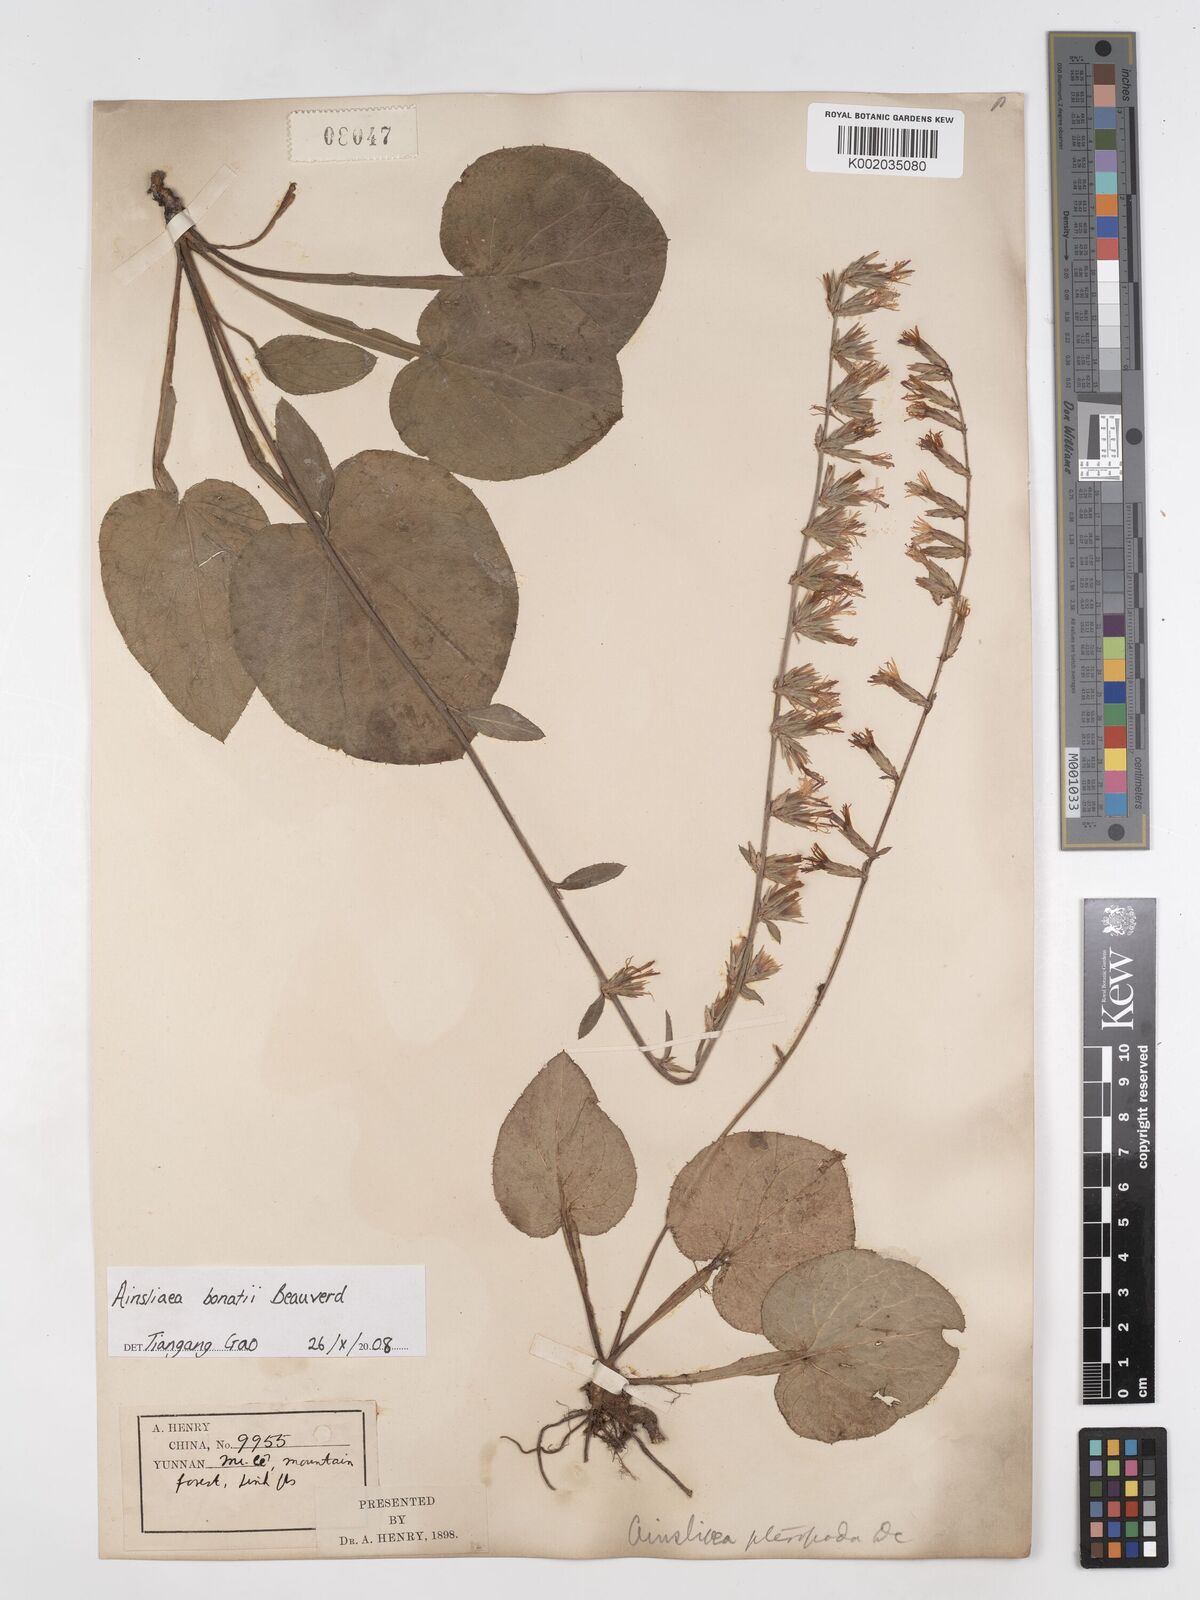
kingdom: Plantae
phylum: Tracheophyta
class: Magnoliopsida
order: Asterales
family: Asteraceae
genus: Ainsliaea
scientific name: Ainsliaea bonatii
